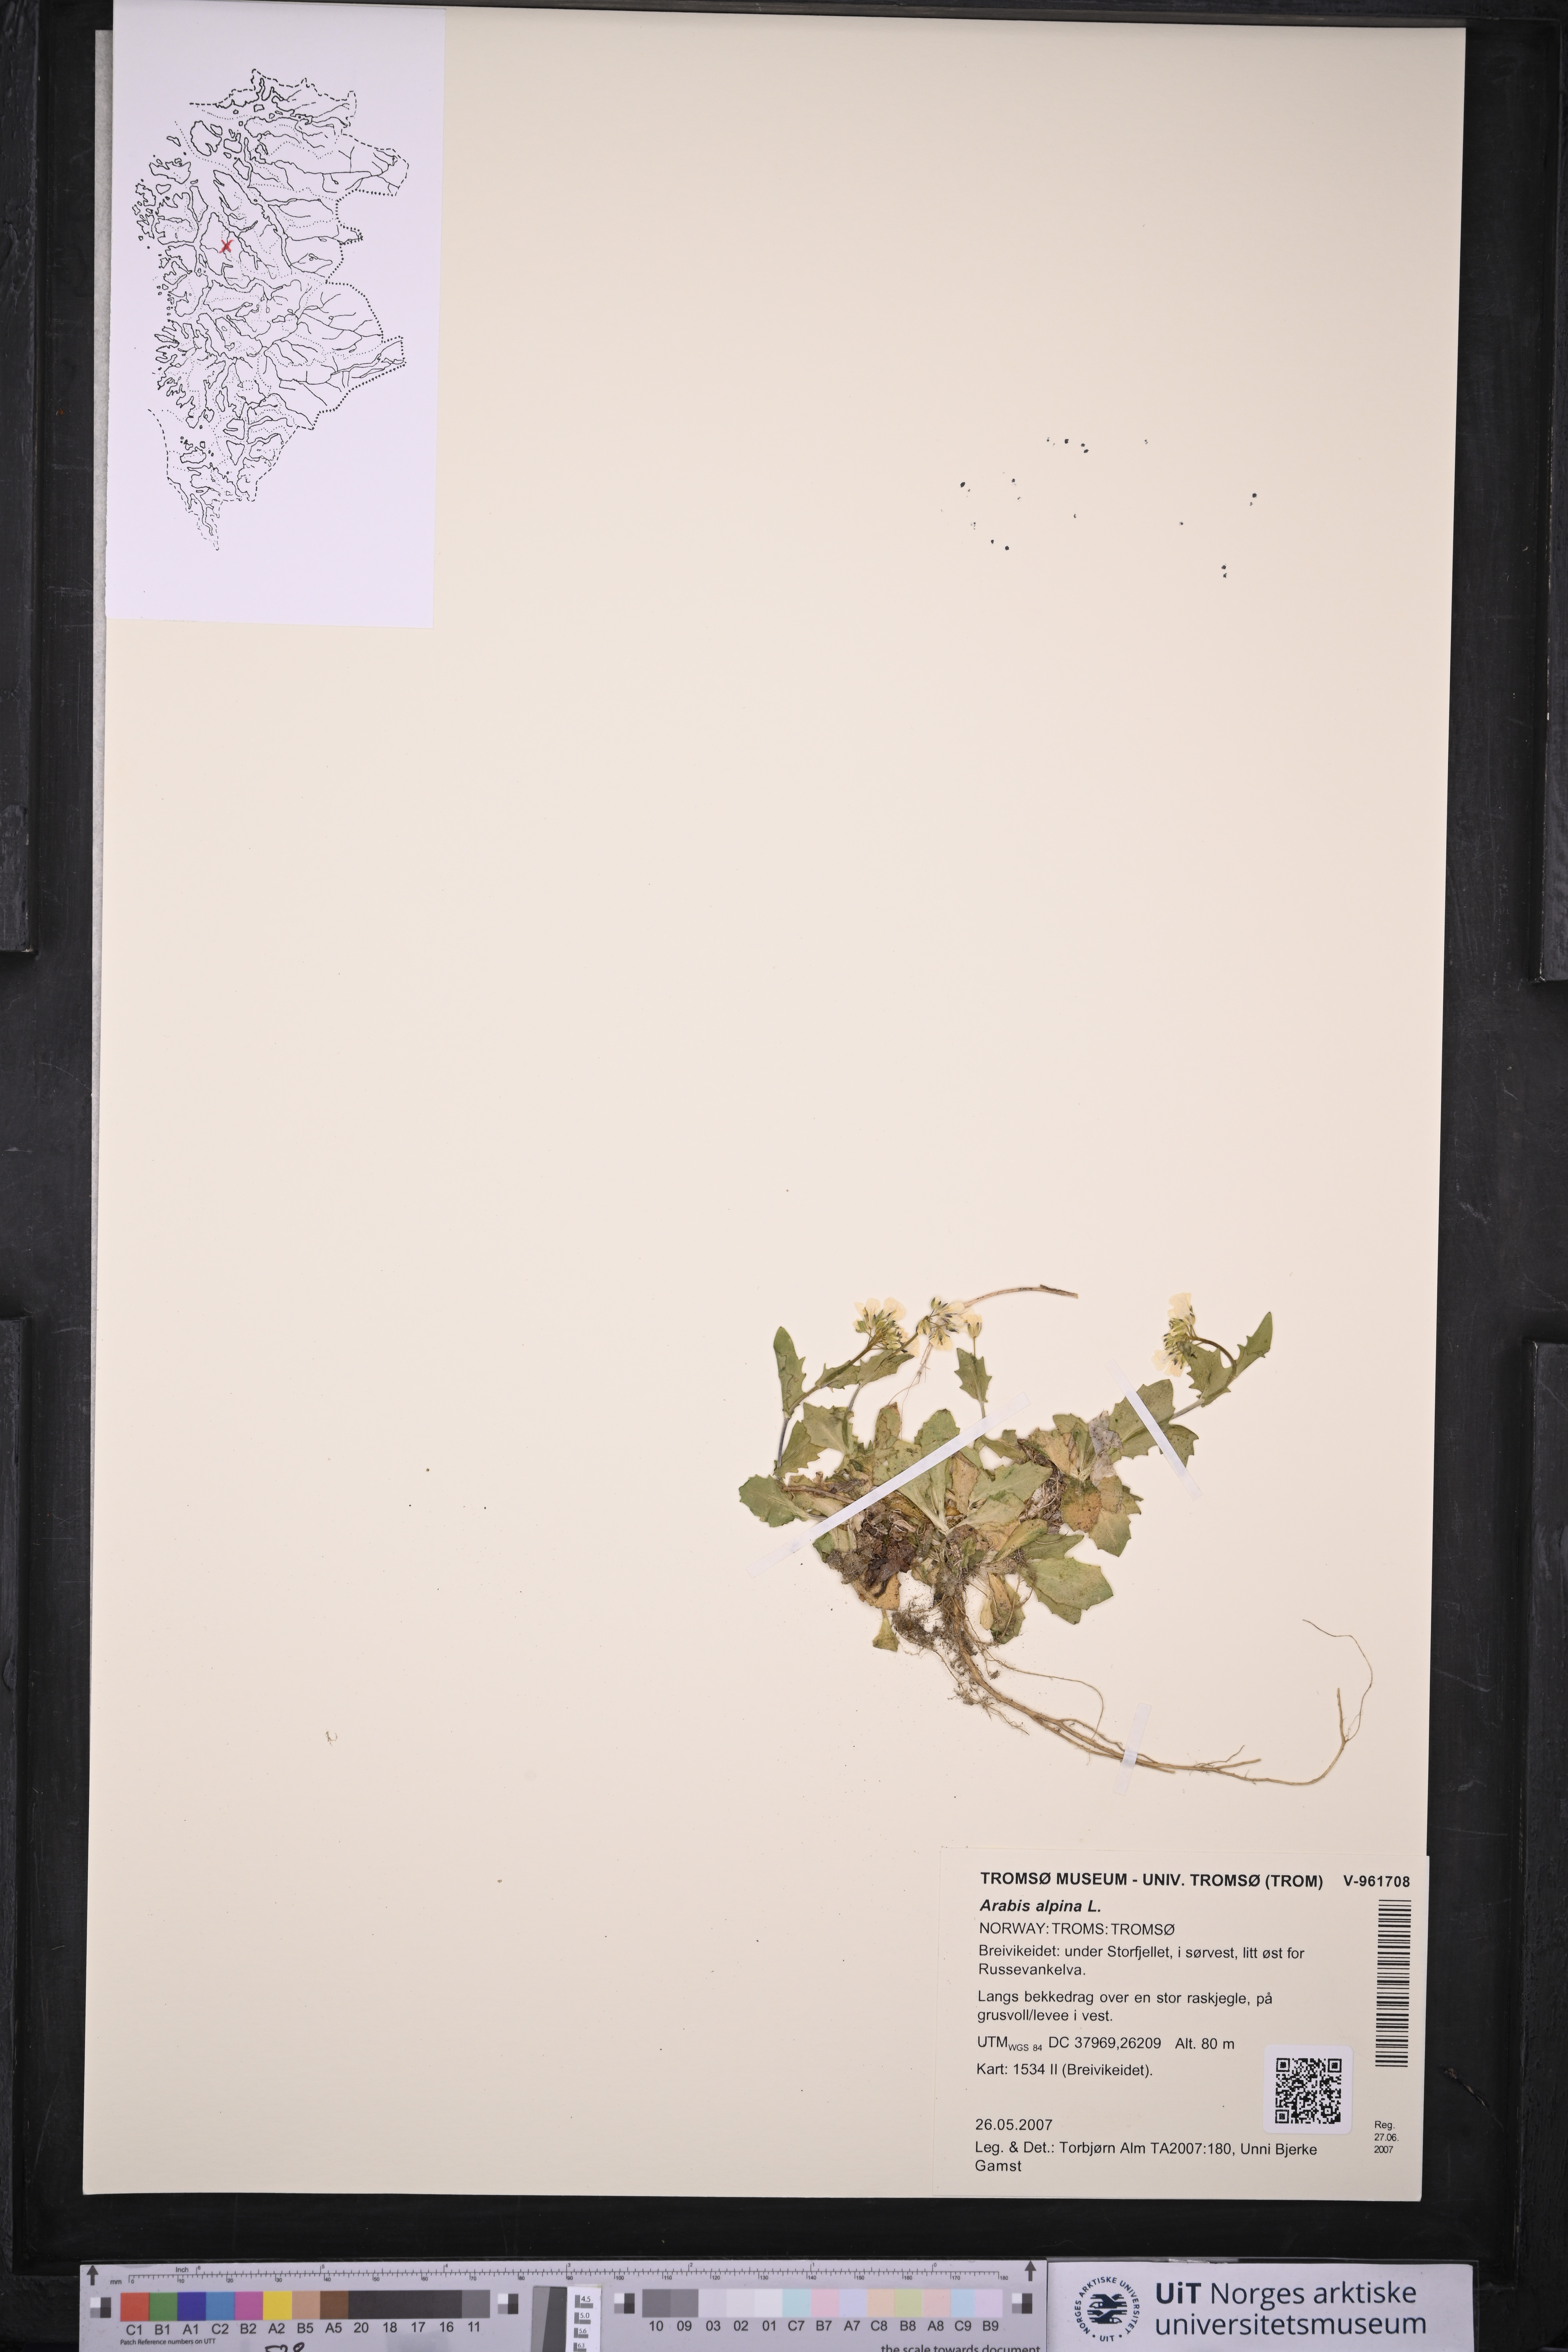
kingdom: Plantae
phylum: Tracheophyta
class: Magnoliopsida
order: Brassicales
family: Brassicaceae
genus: Arabis
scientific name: Arabis alpina
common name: Alpine rock-cress
